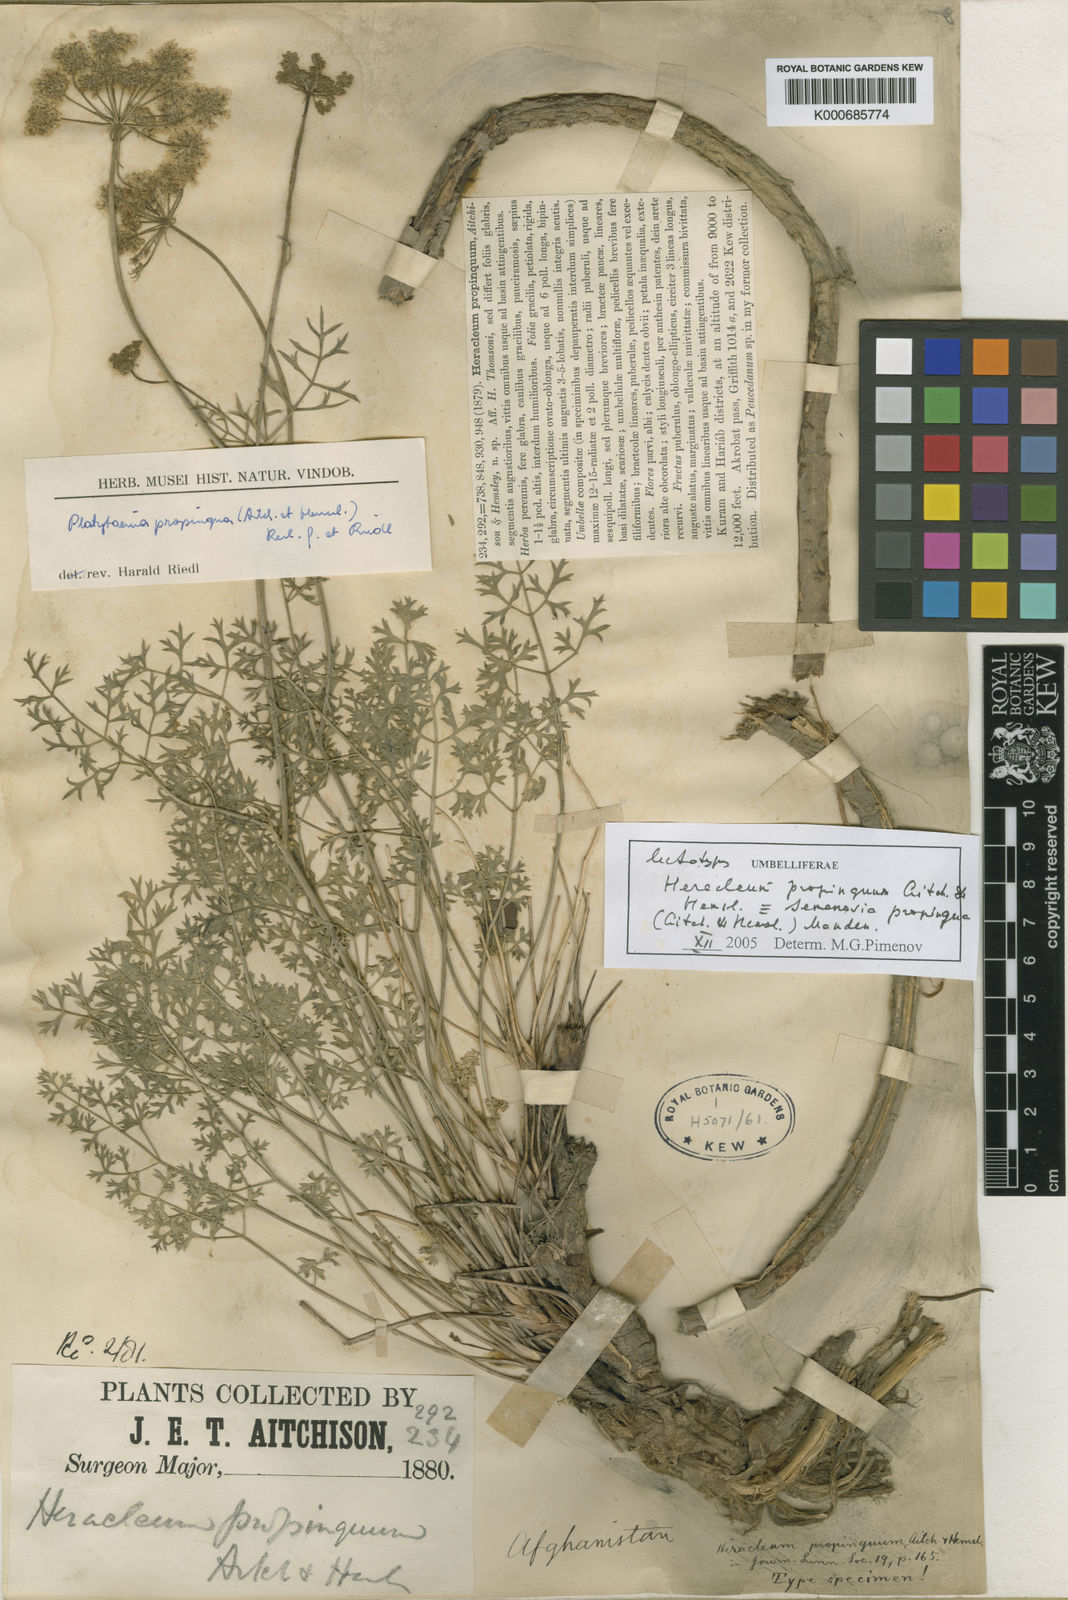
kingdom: Plantae
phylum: Tracheophyta
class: Magnoliopsida
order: Apiales
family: Apiaceae
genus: Semenovia
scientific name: Semenovia propinqua
